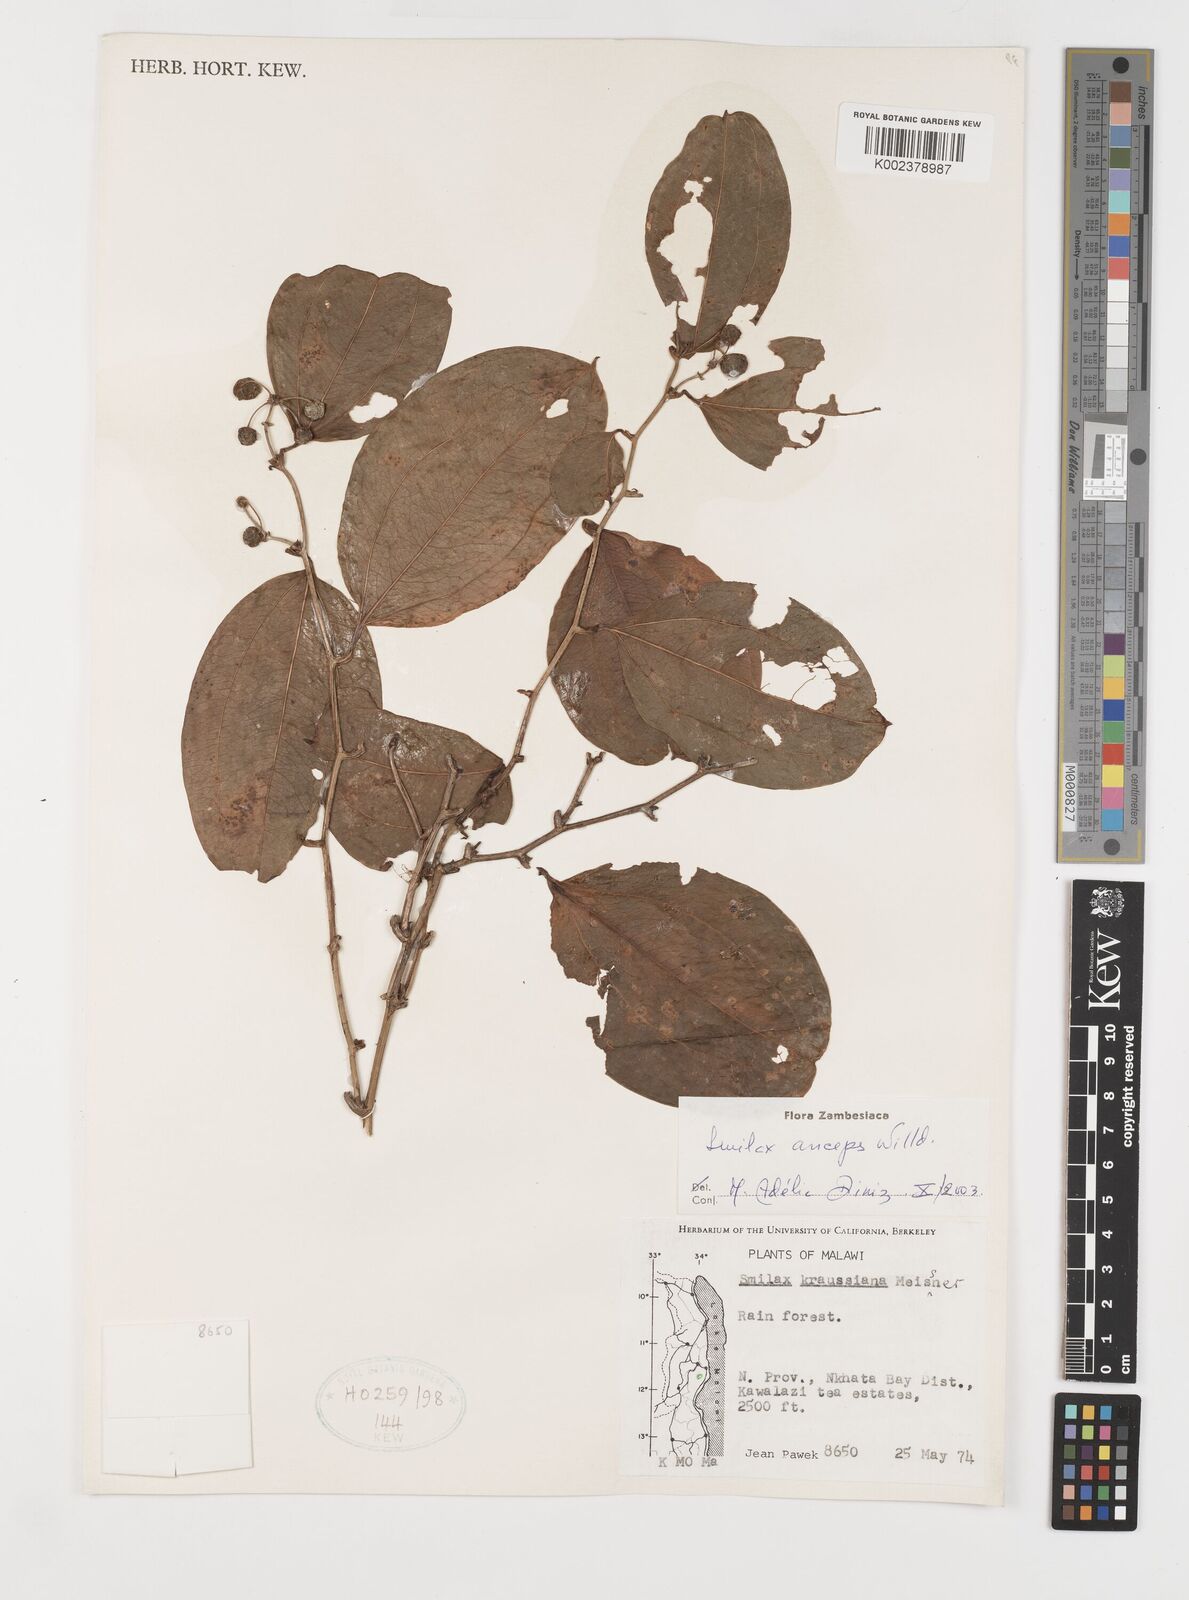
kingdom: Plantae
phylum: Tracheophyta
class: Liliopsida
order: Liliales
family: Smilacaceae
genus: Smilax
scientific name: Smilax anceps
